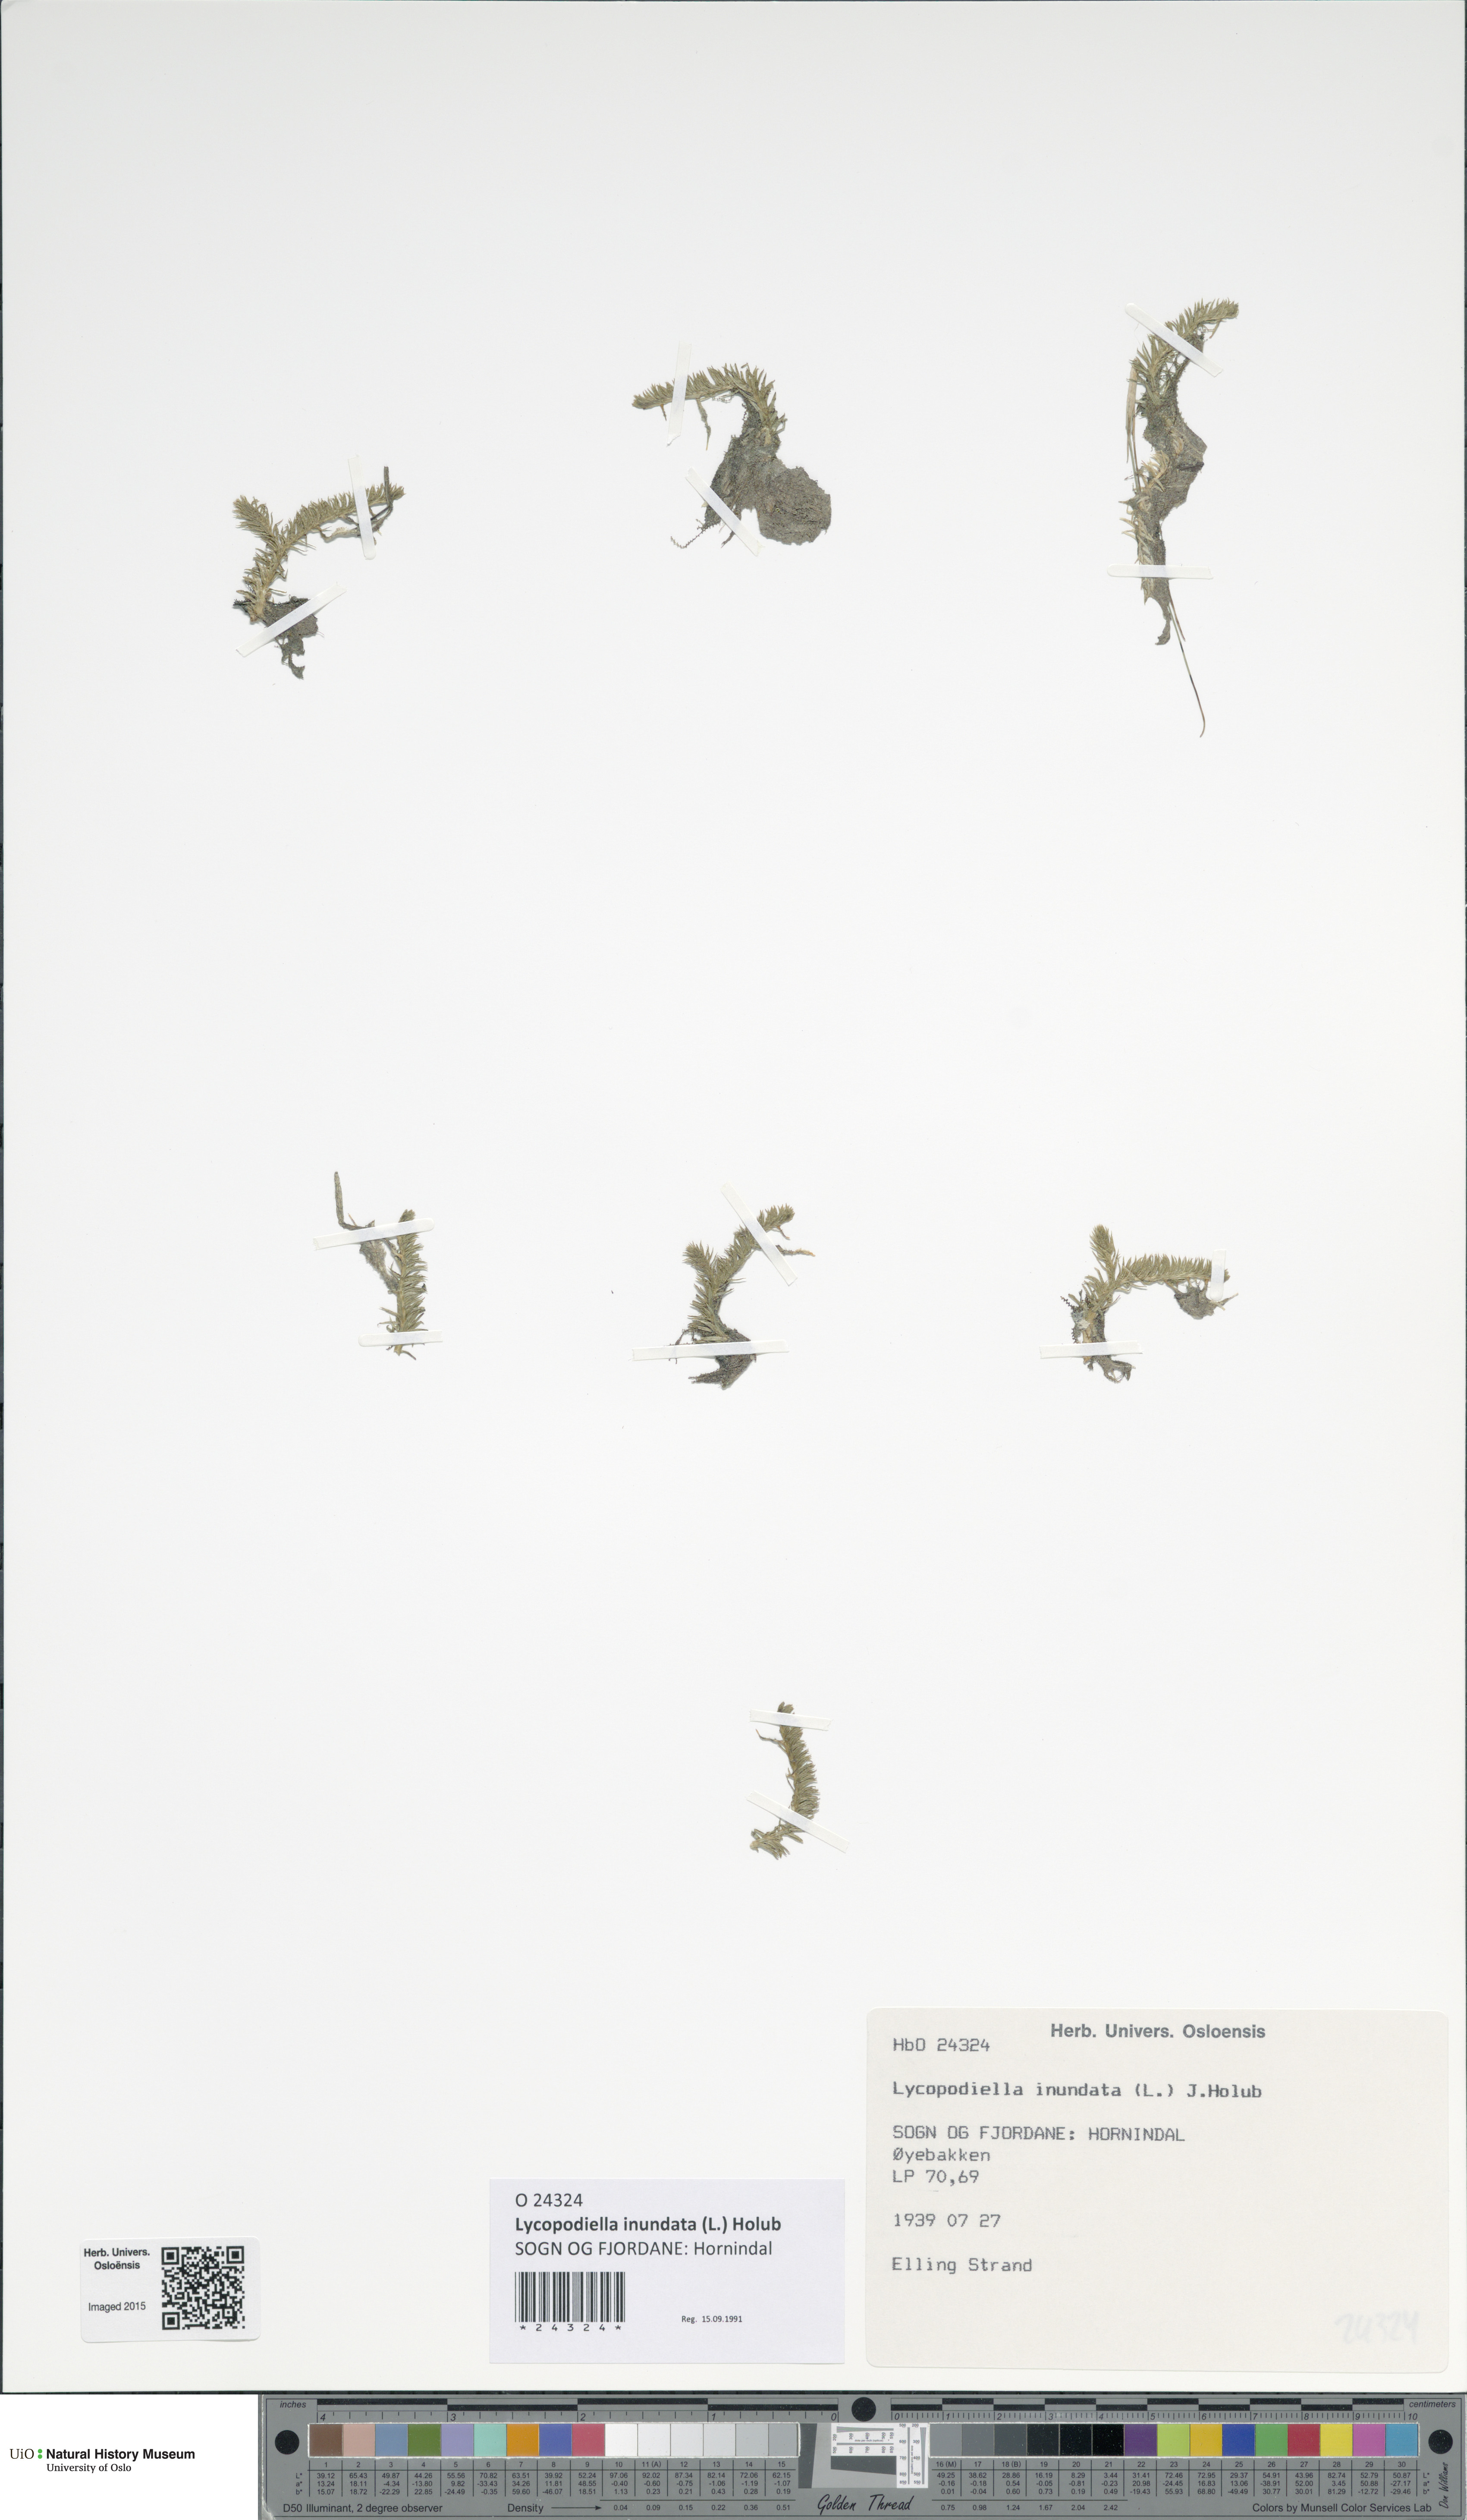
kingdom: Plantae
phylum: Tracheophyta
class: Lycopodiopsida
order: Lycopodiales
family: Lycopodiaceae
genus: Lycopodiella
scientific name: Lycopodiella inundata
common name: Marsh clubmoss
